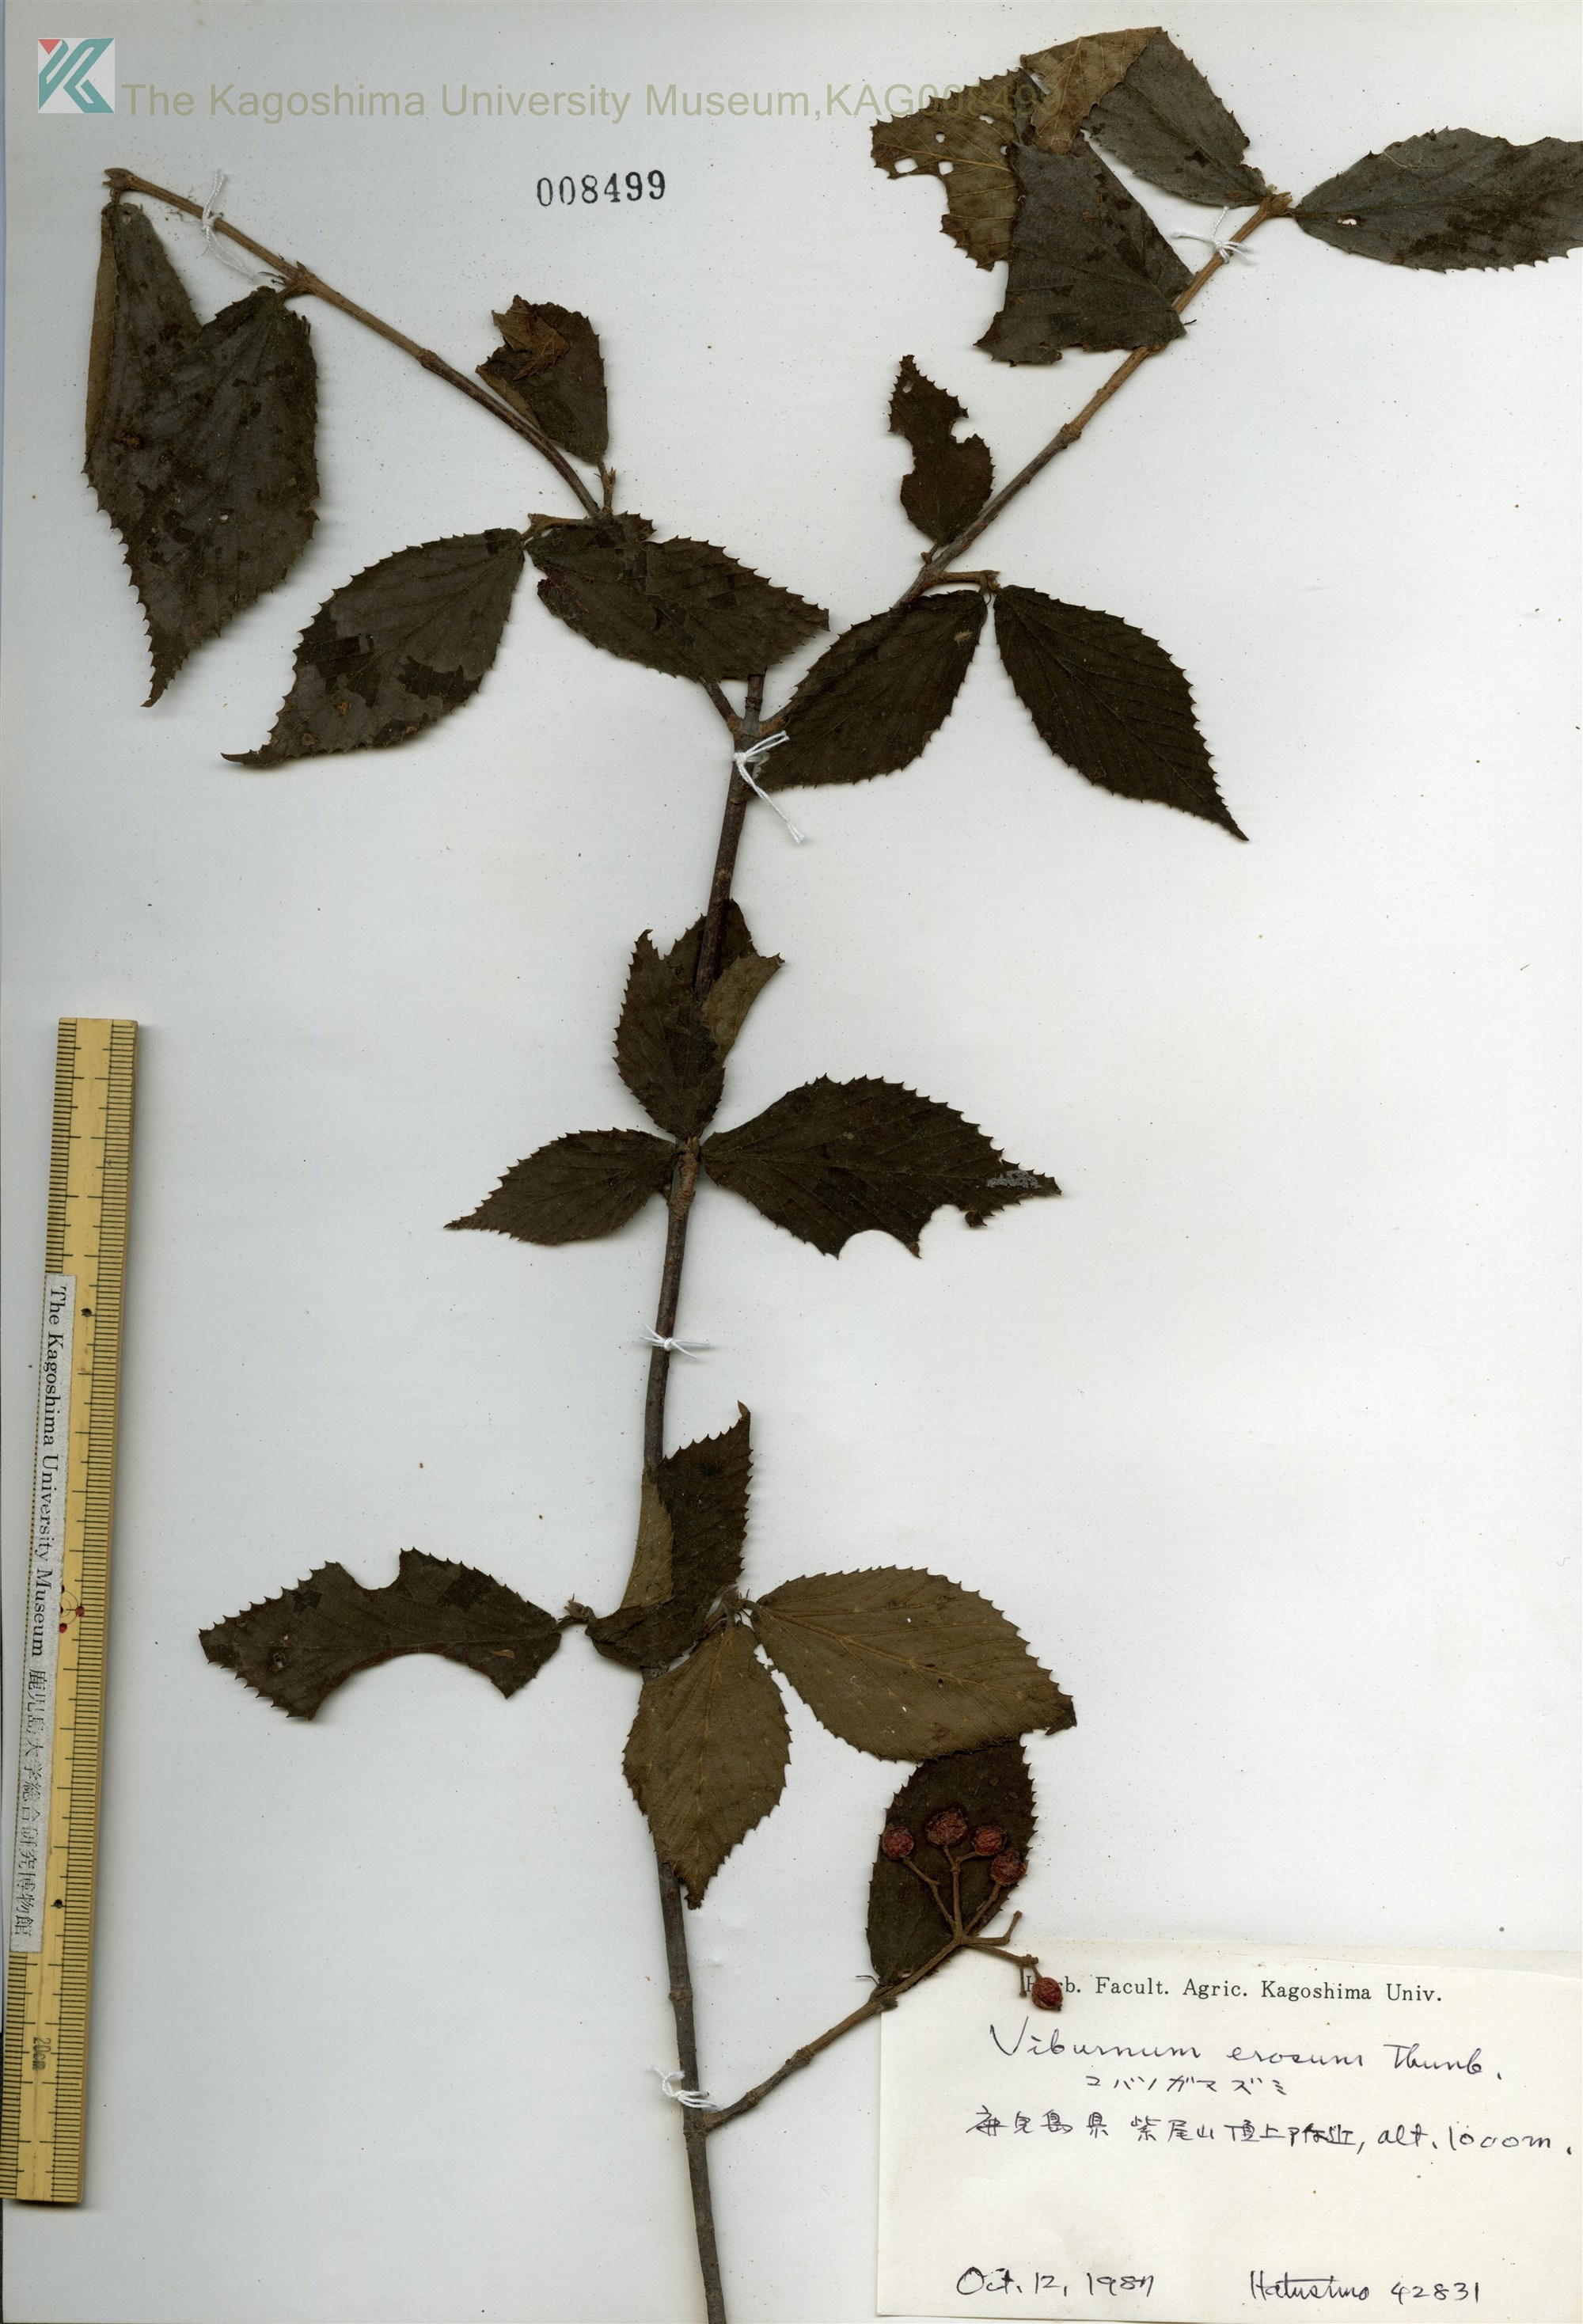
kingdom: Plantae
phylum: Tracheophyta
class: Magnoliopsida
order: Dipsacales
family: Viburnaceae
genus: Viburnum
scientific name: Viburnum erosum
